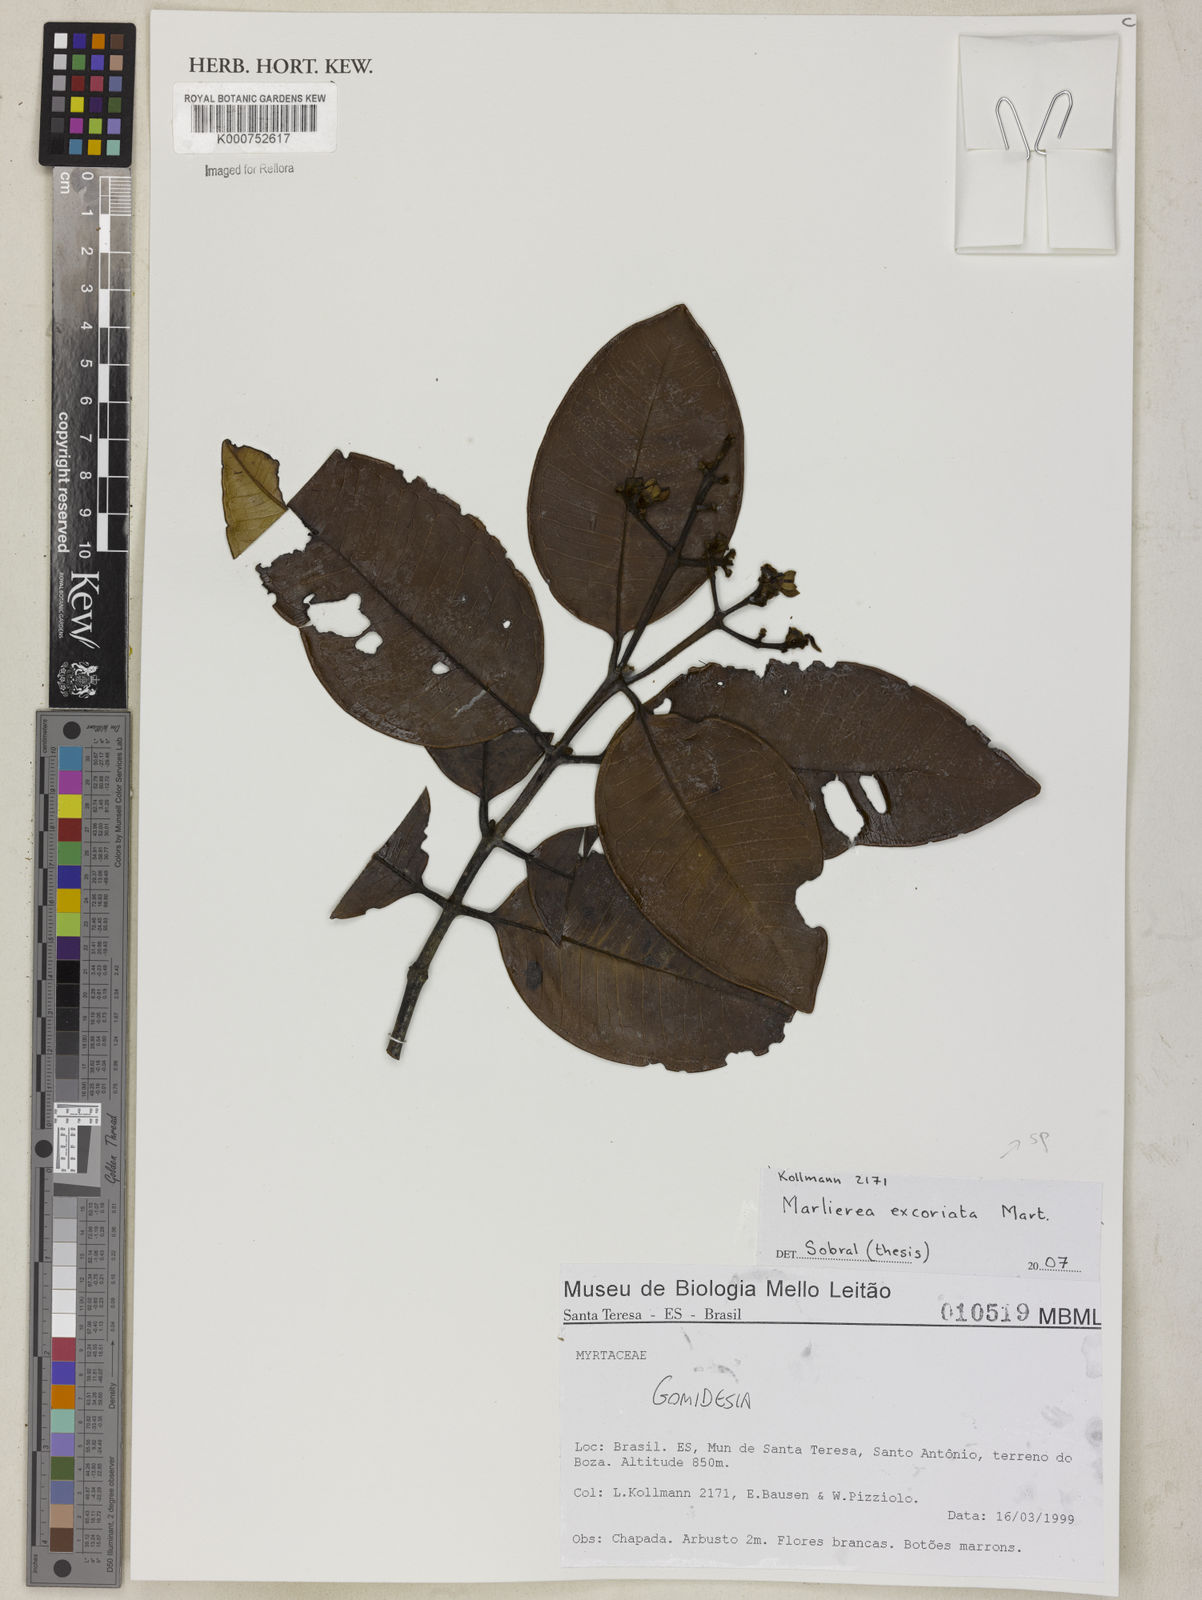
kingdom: Plantae
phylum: Tracheophyta
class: Magnoliopsida
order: Myrtales
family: Myrtaceae
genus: Myrcia
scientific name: Myrcia excoriata
